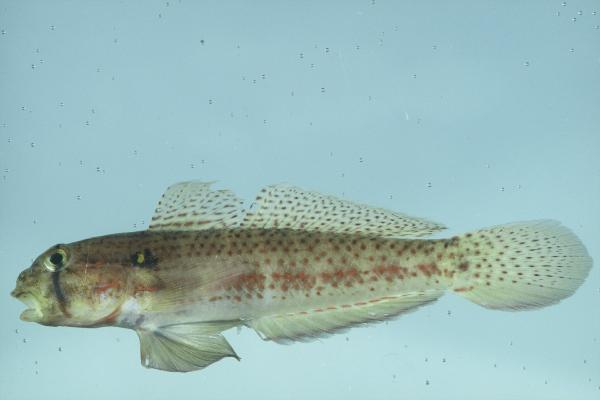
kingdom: Animalia
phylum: Chordata
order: Perciformes
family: Gobiidae
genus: Gnatholepis
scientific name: Gnatholepis cauerensis
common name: Bridled goby
